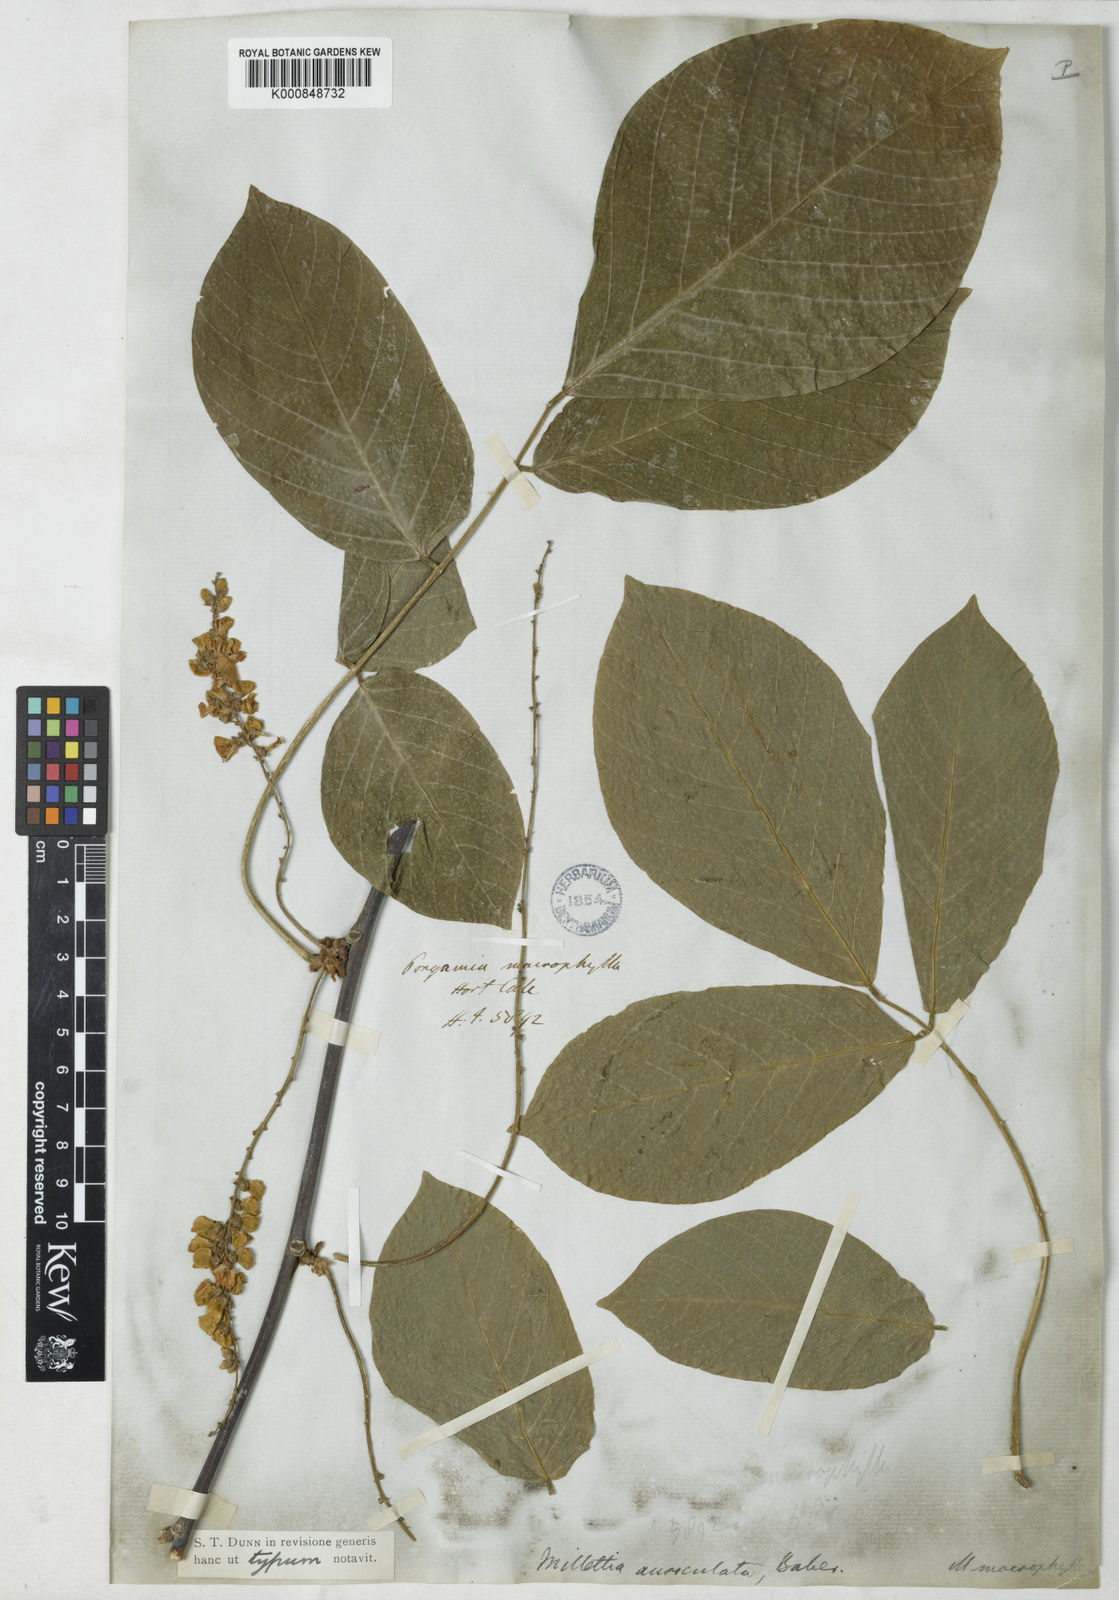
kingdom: Plantae
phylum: Tracheophyta
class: Magnoliopsida
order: Fabales
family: Fabaceae
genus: Millettia
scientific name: Millettia extensa
